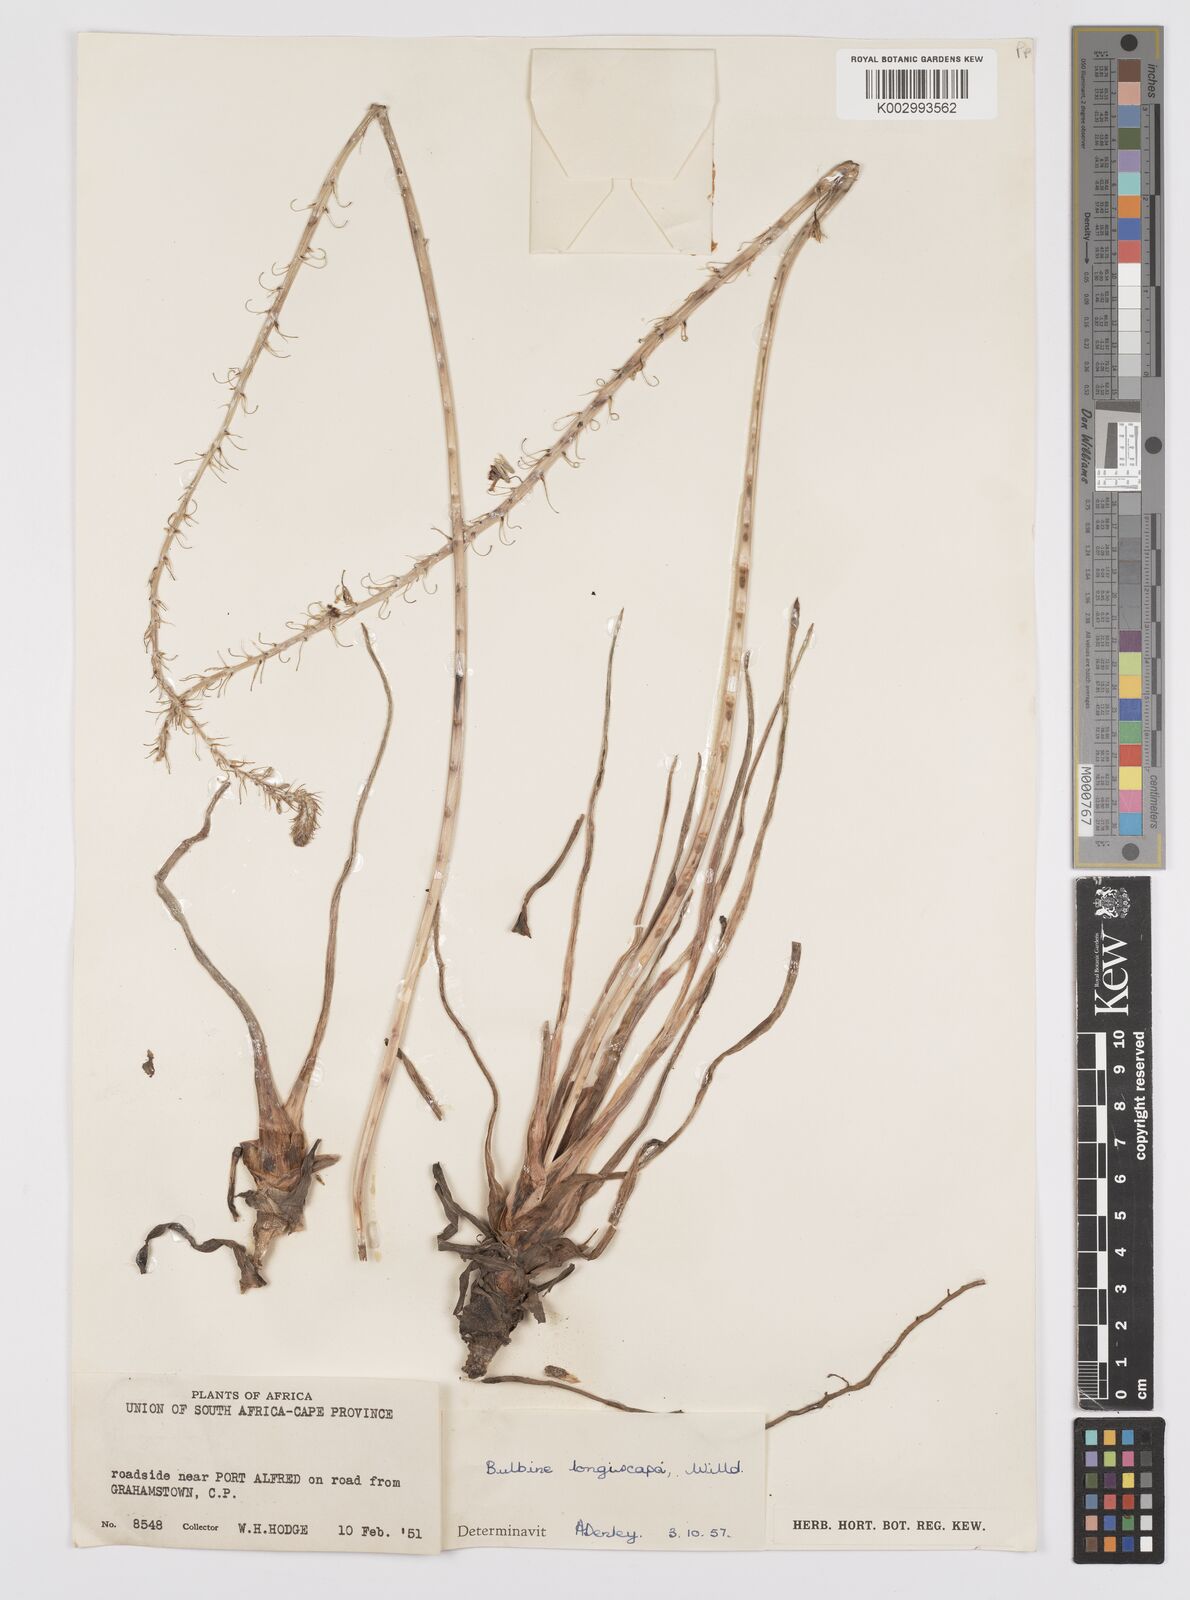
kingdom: Plantae
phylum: Tracheophyta
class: Liliopsida
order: Asparagales
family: Asphodelaceae
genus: Bulbine
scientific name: Bulbine asphodeloides
